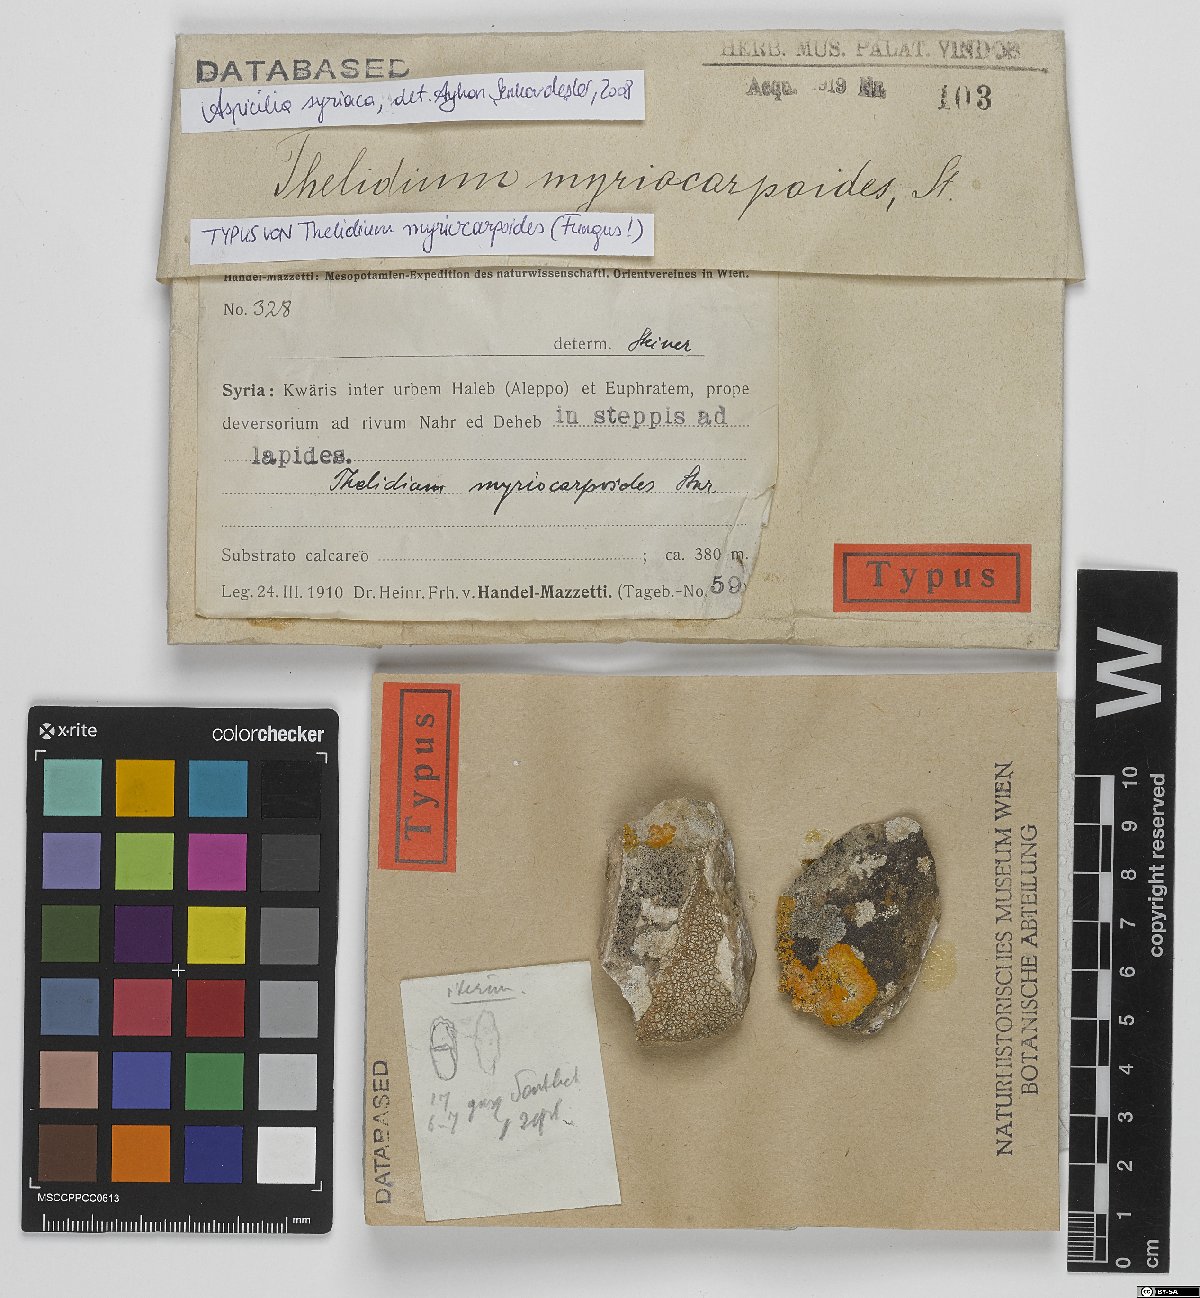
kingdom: Fungi
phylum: Ascomycota
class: Eurotiomycetes
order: Verrucariales
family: Verrucariaceae
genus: Thelidium
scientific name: Thelidium
